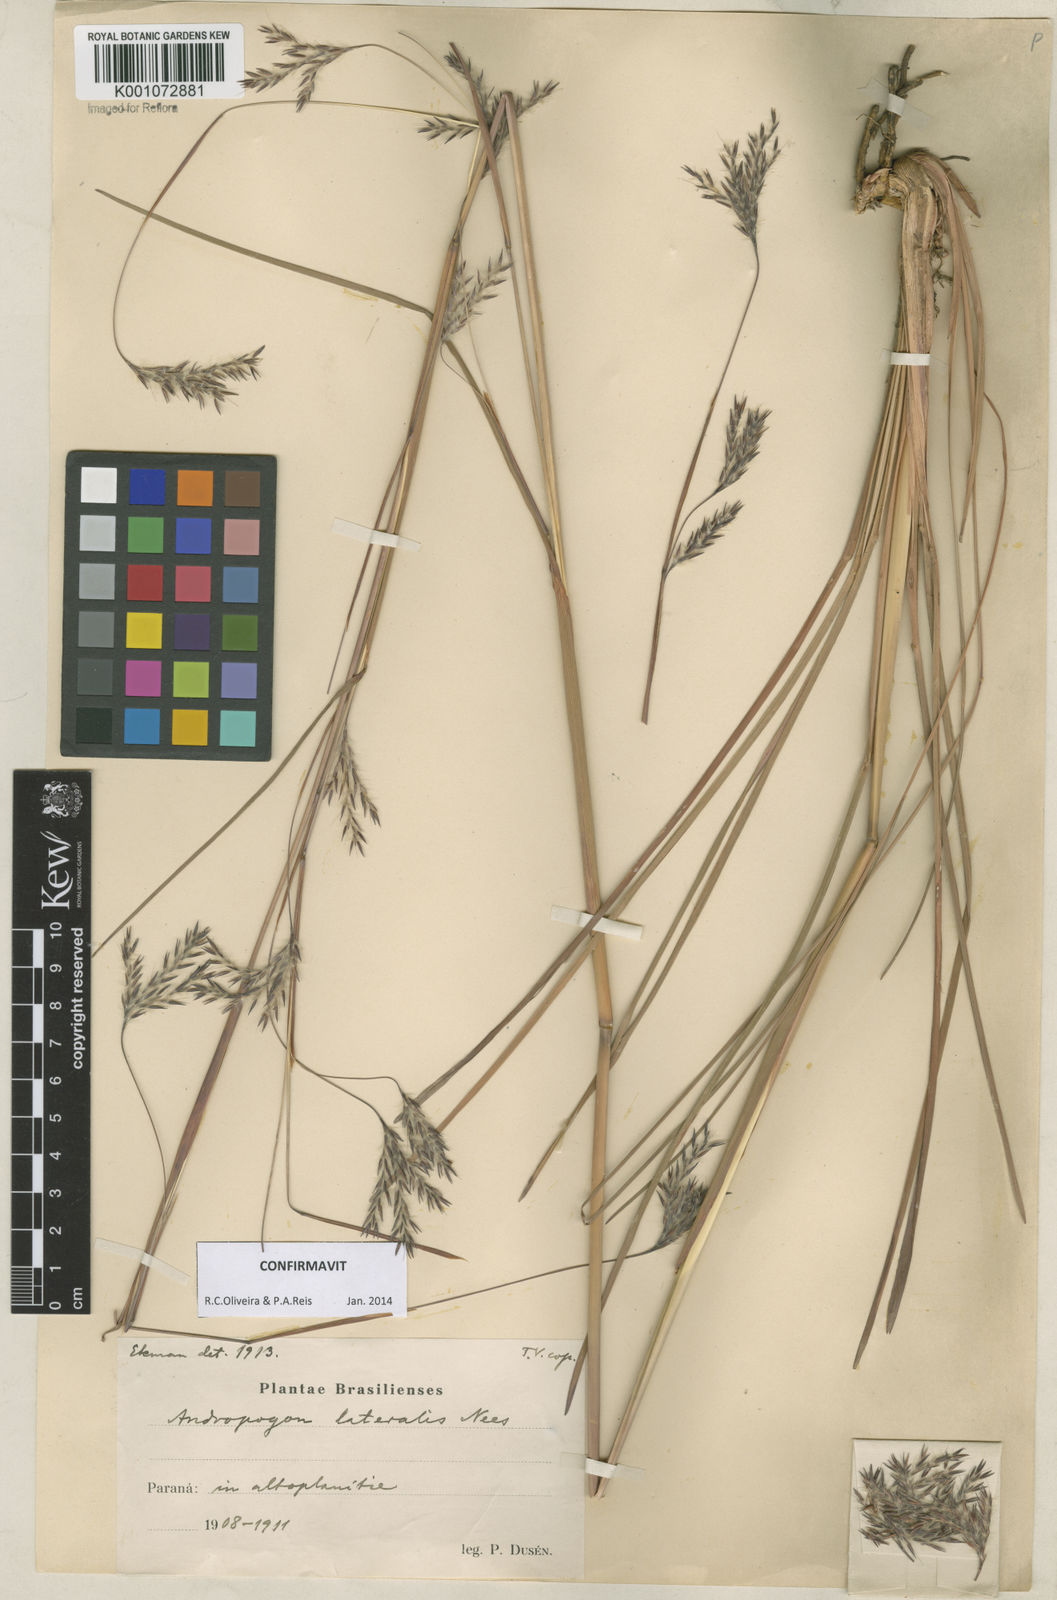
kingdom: Plantae
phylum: Tracheophyta
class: Liliopsida
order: Poales
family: Poaceae
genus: Andropogon
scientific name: Andropogon lateralis
